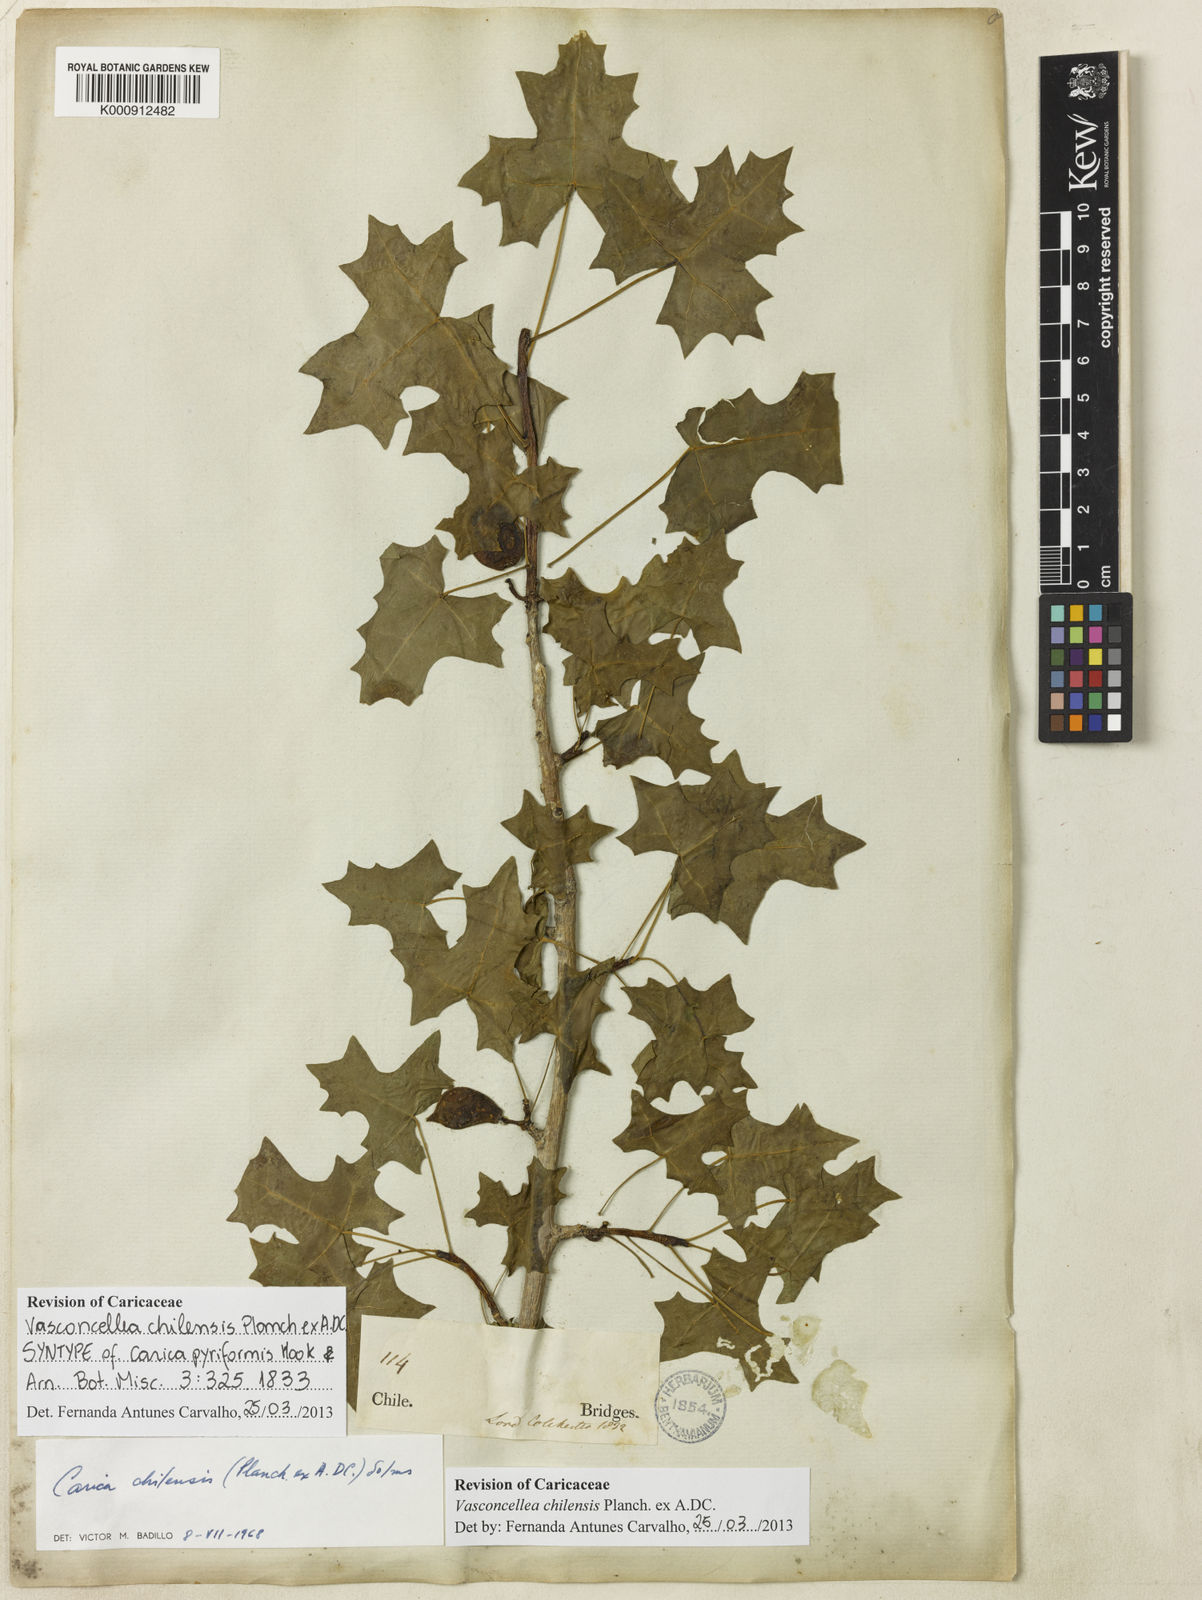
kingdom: Plantae
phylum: Tracheophyta
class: Magnoliopsida
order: Brassicales
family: Caricaceae
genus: Vasconcellea
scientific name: Vasconcellea
